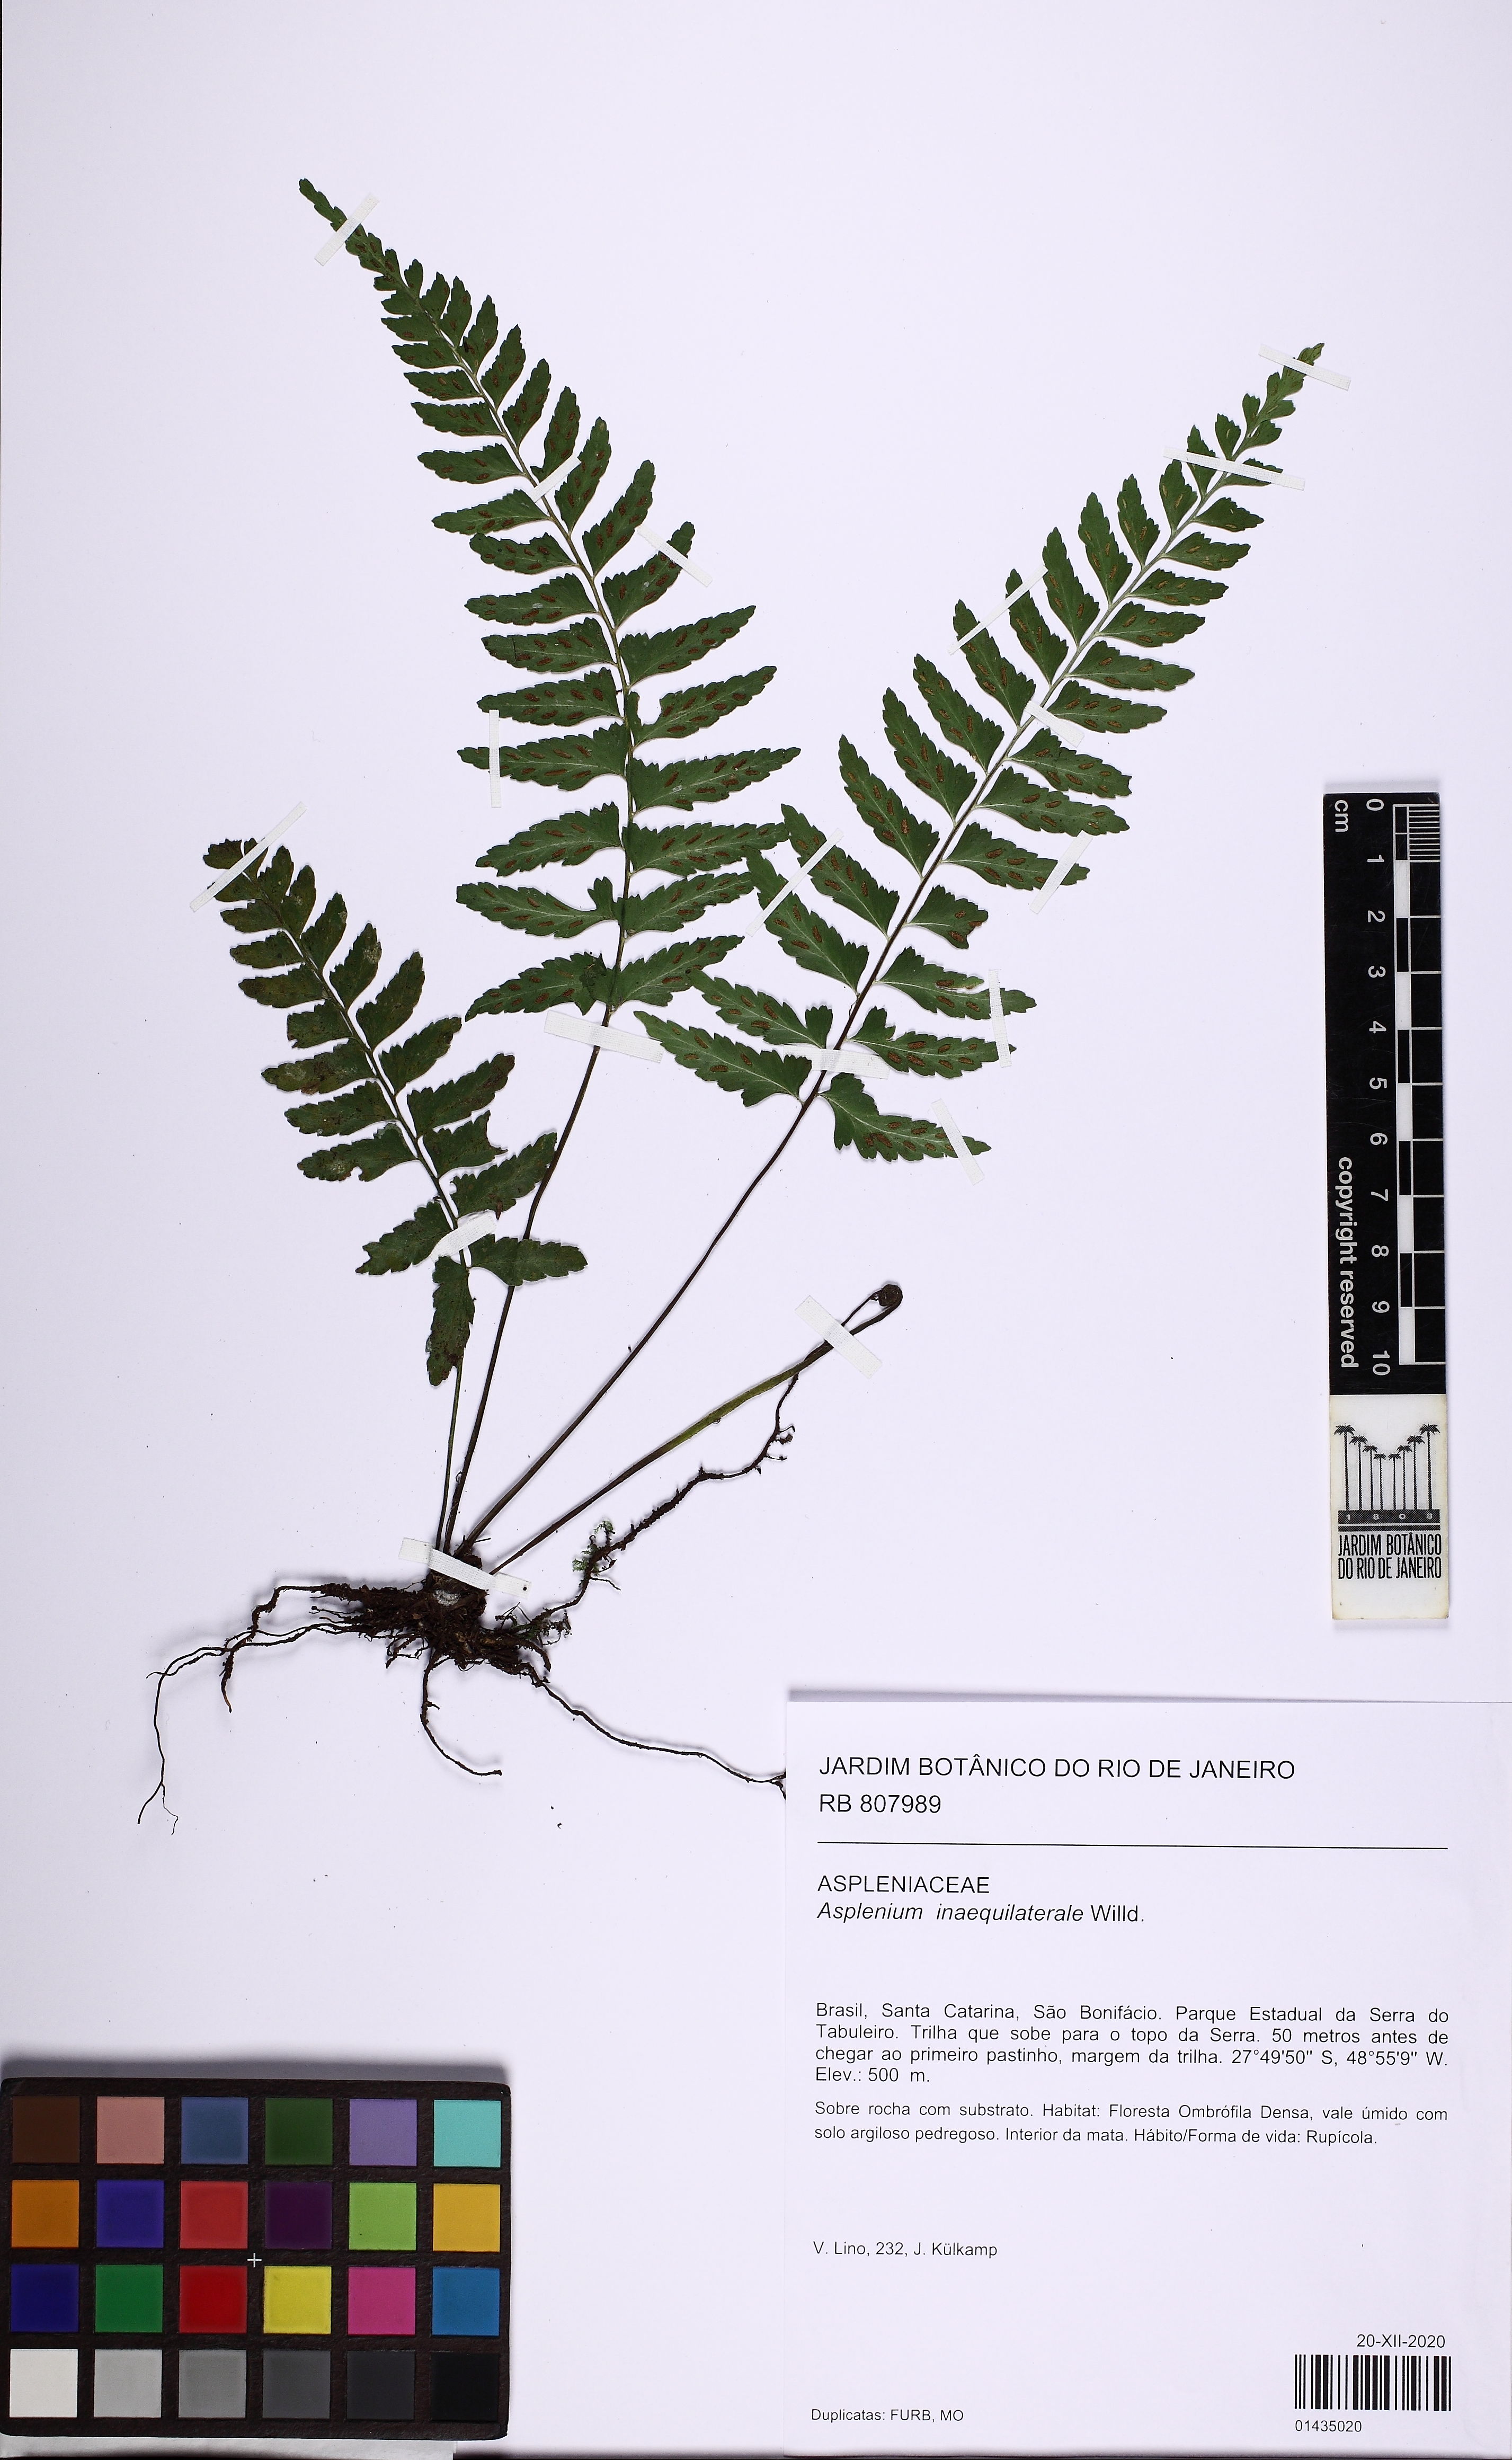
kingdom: Plantae
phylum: Tracheophyta
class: Polypodiopsida
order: Polypodiales
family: Aspleniaceae
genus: Asplenium
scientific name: Asplenium inaequilaterale
